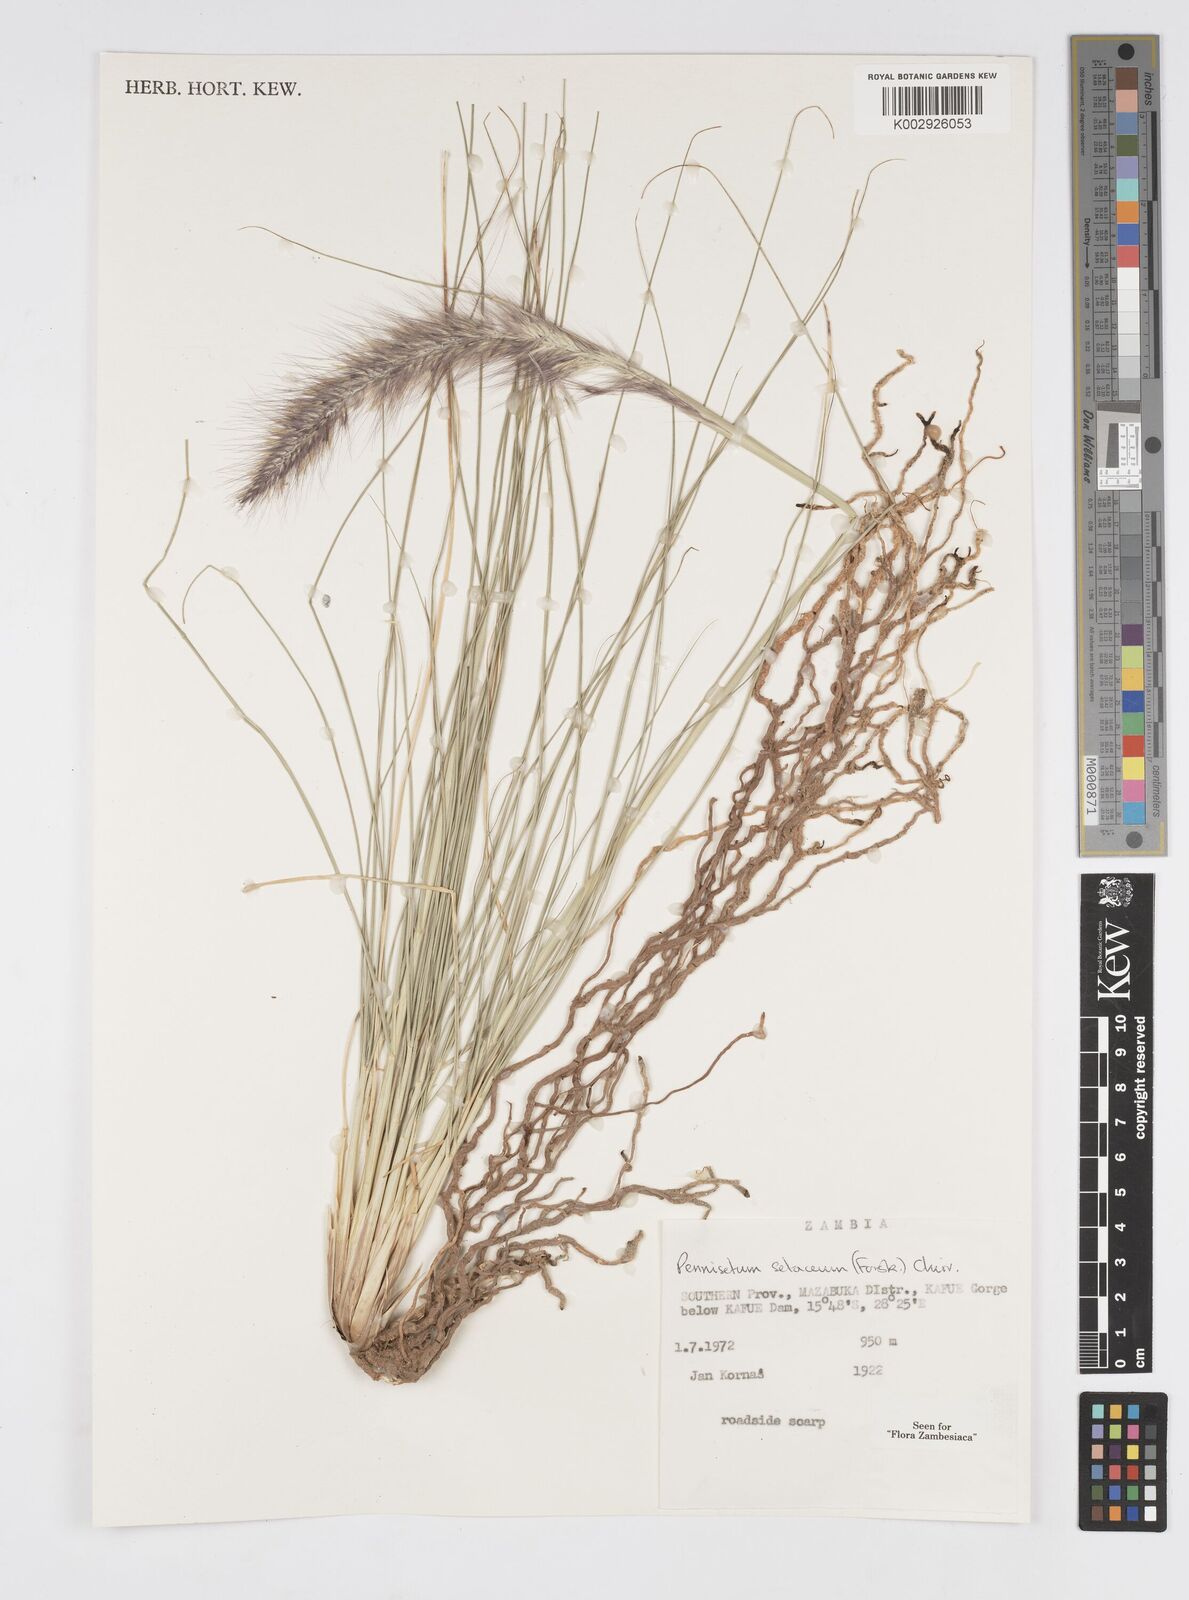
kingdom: Plantae
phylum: Tracheophyta
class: Liliopsida
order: Poales
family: Poaceae
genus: Cenchrus
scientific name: Cenchrus setaceus
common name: Crimson fountaingrass
